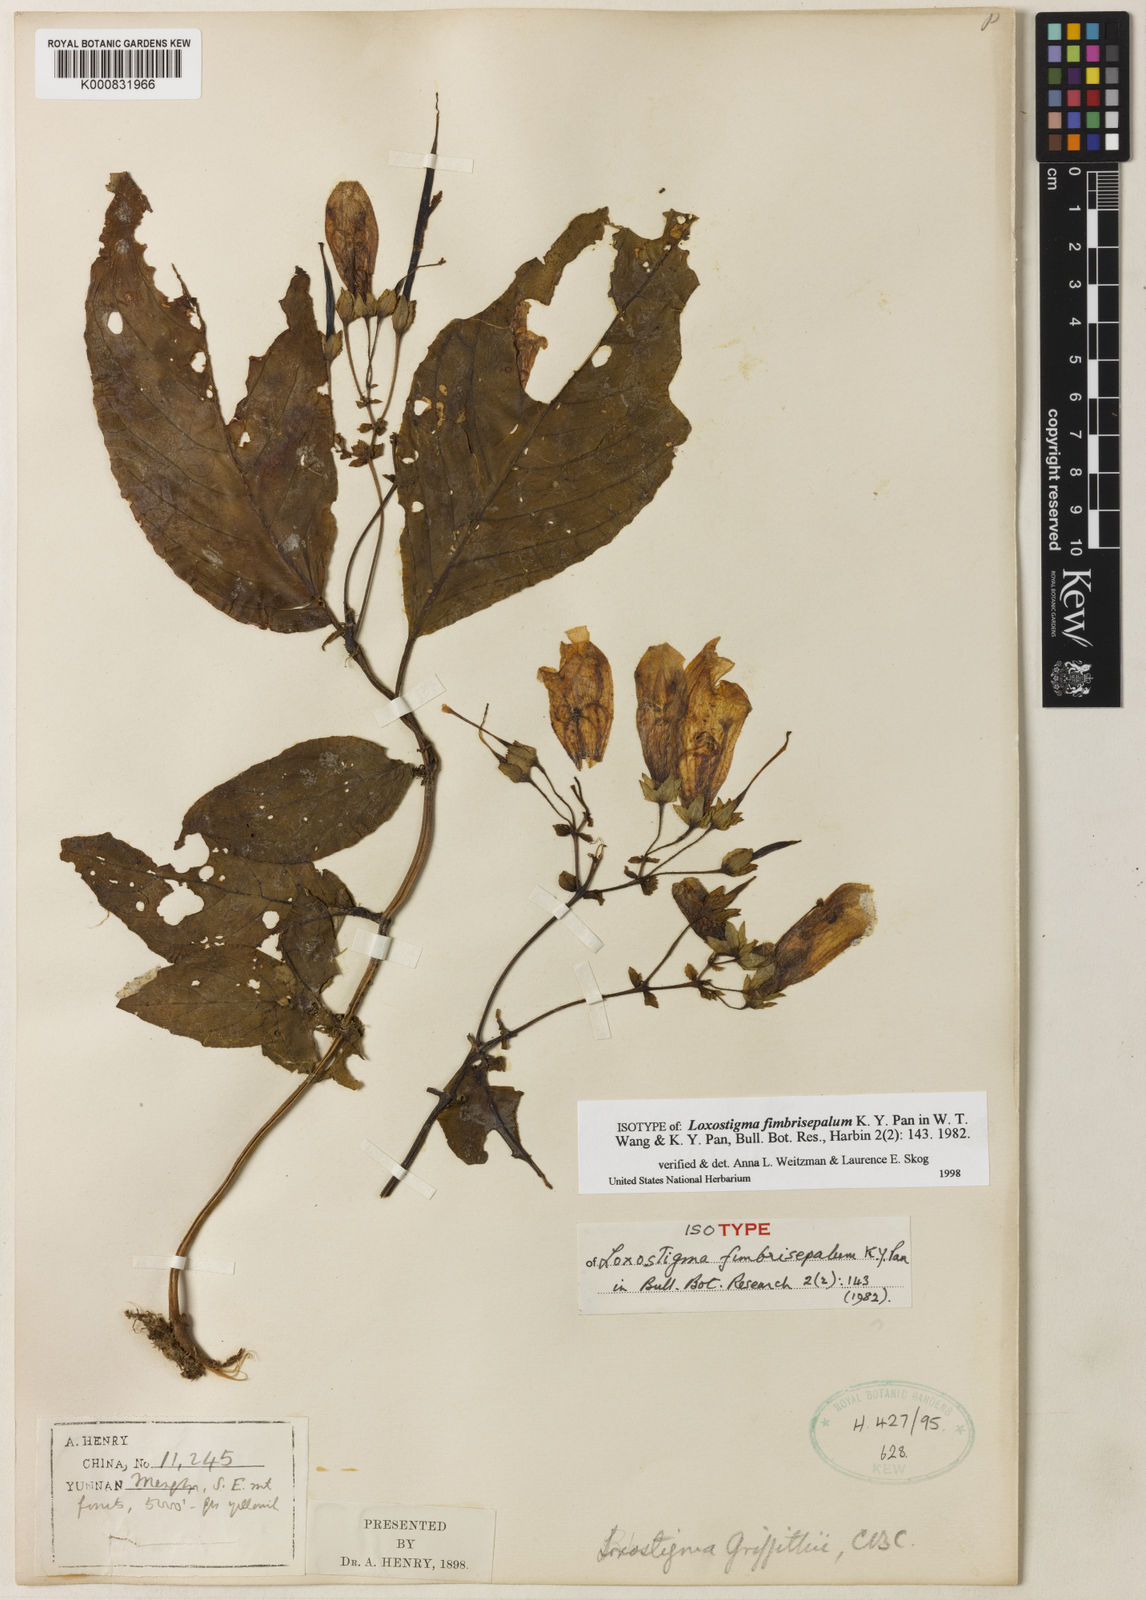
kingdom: Plantae
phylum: Tracheophyta
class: Magnoliopsida
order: Lamiales
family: Gesneriaceae
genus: Loxostigma
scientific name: Loxostigma fimbrisepalum
